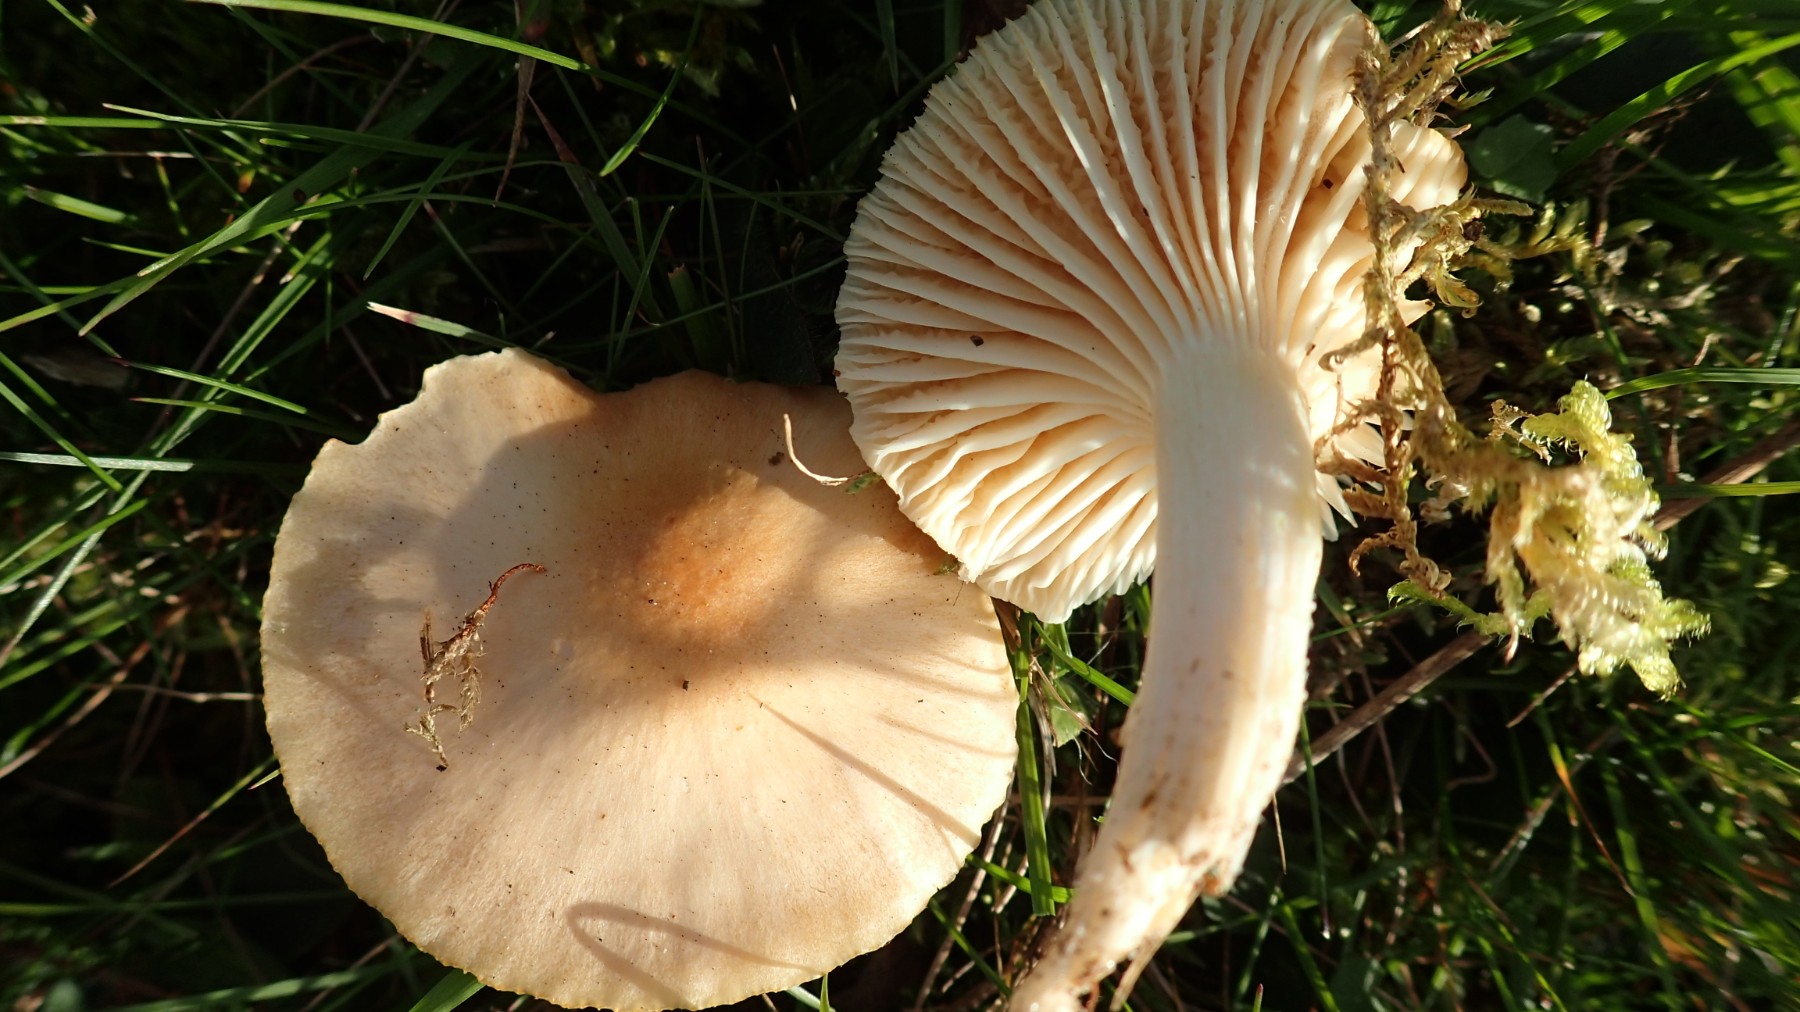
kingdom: Fungi
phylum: Basidiomycota
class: Agaricomycetes
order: Agaricales
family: Hygrophoraceae
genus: Cuphophyllus
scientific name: Cuphophyllus pratensis
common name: eng-vokshat
